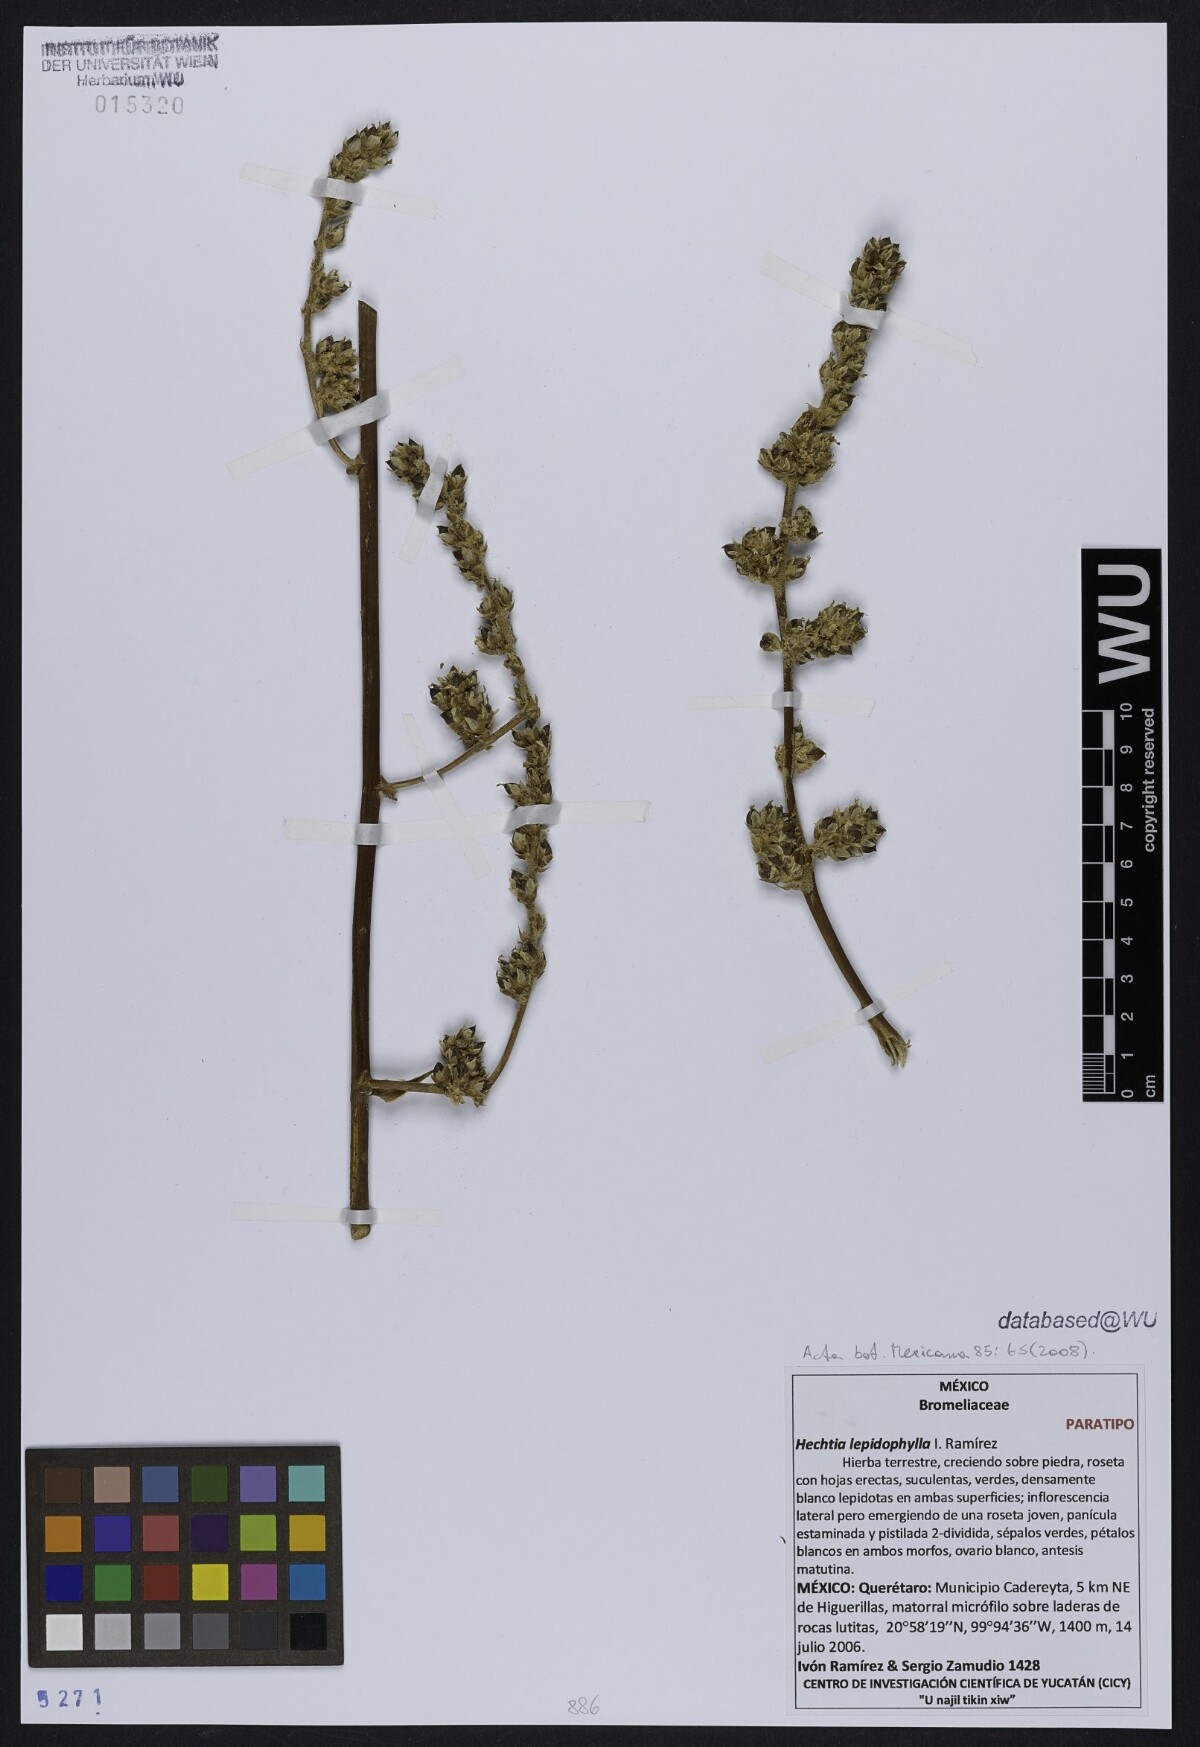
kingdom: Plantae
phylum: Tracheophyta
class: Liliopsida
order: Poales
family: Bromeliaceae
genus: Hechtia
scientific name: Hechtia lepidophylla
